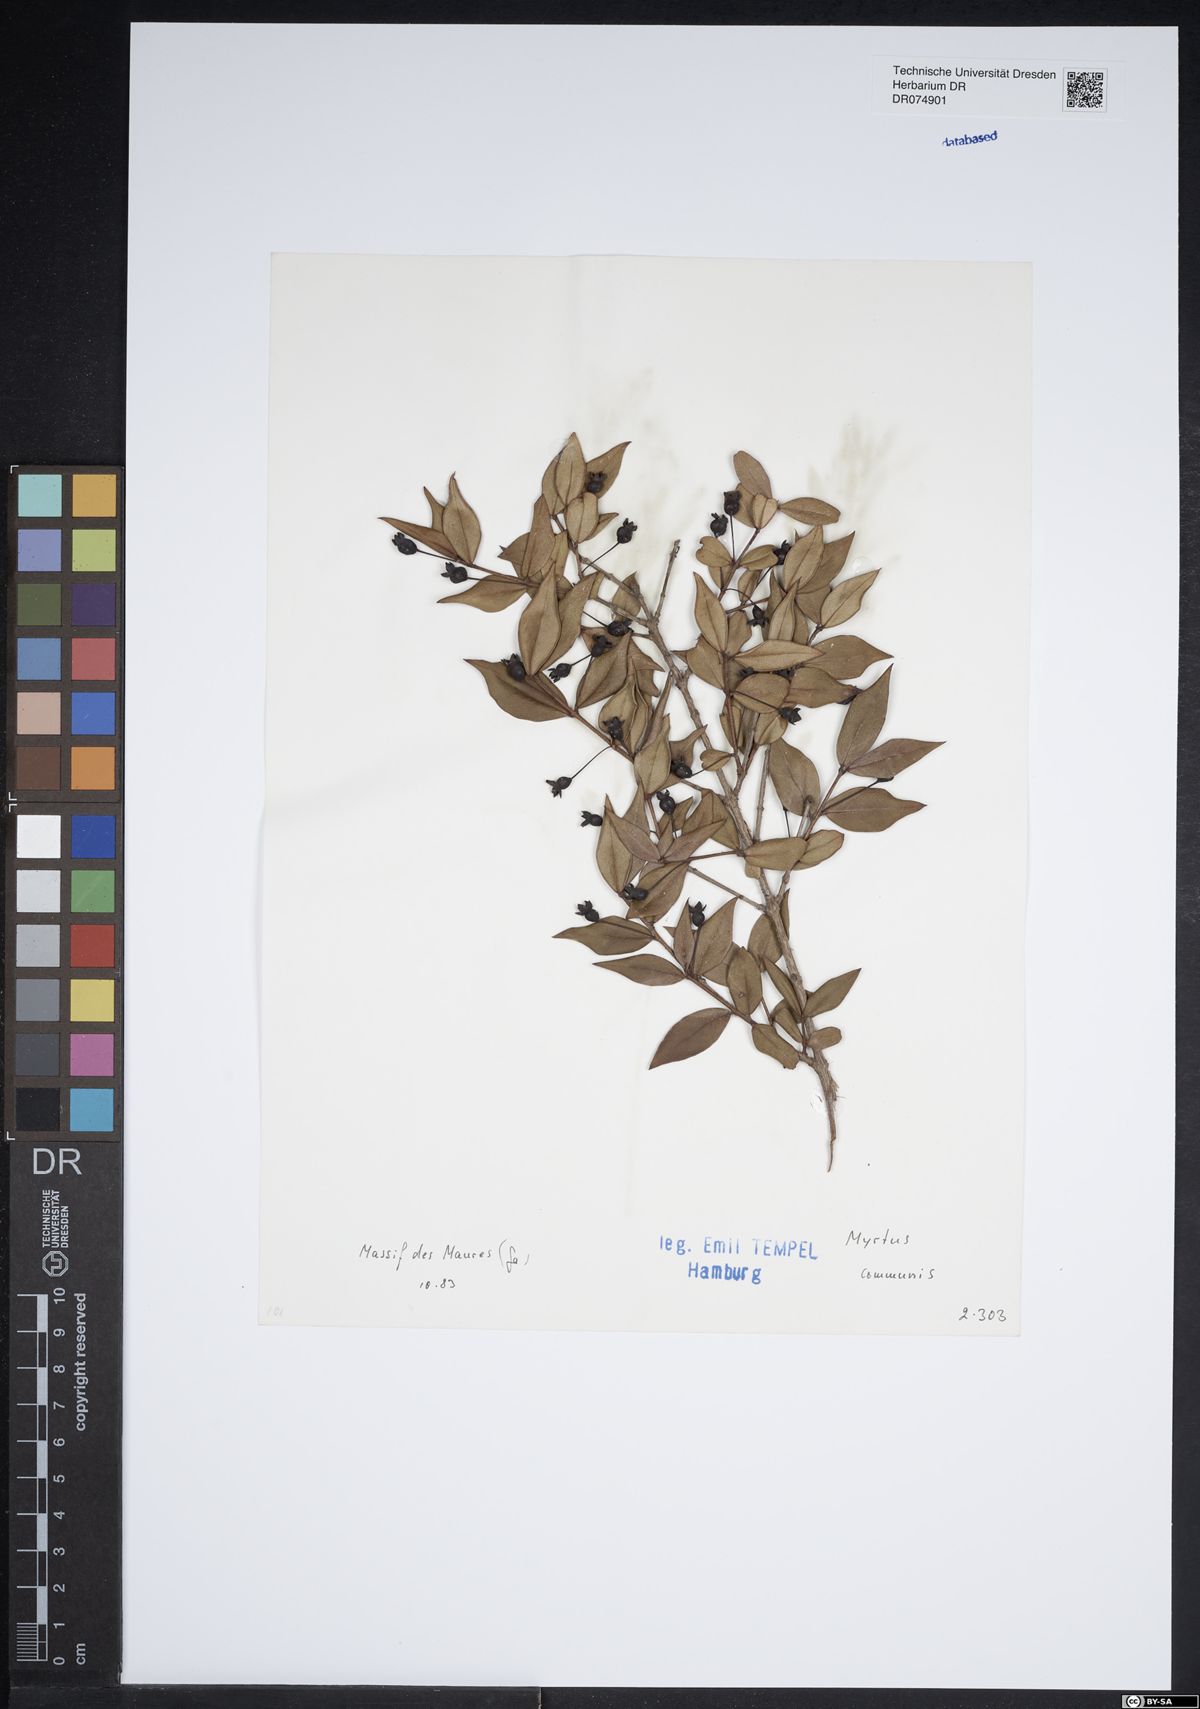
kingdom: Plantae
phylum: Tracheophyta
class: Magnoliopsida
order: Myrtales
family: Myrtaceae
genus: Myrtus
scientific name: Myrtus communis
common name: Myrtle
